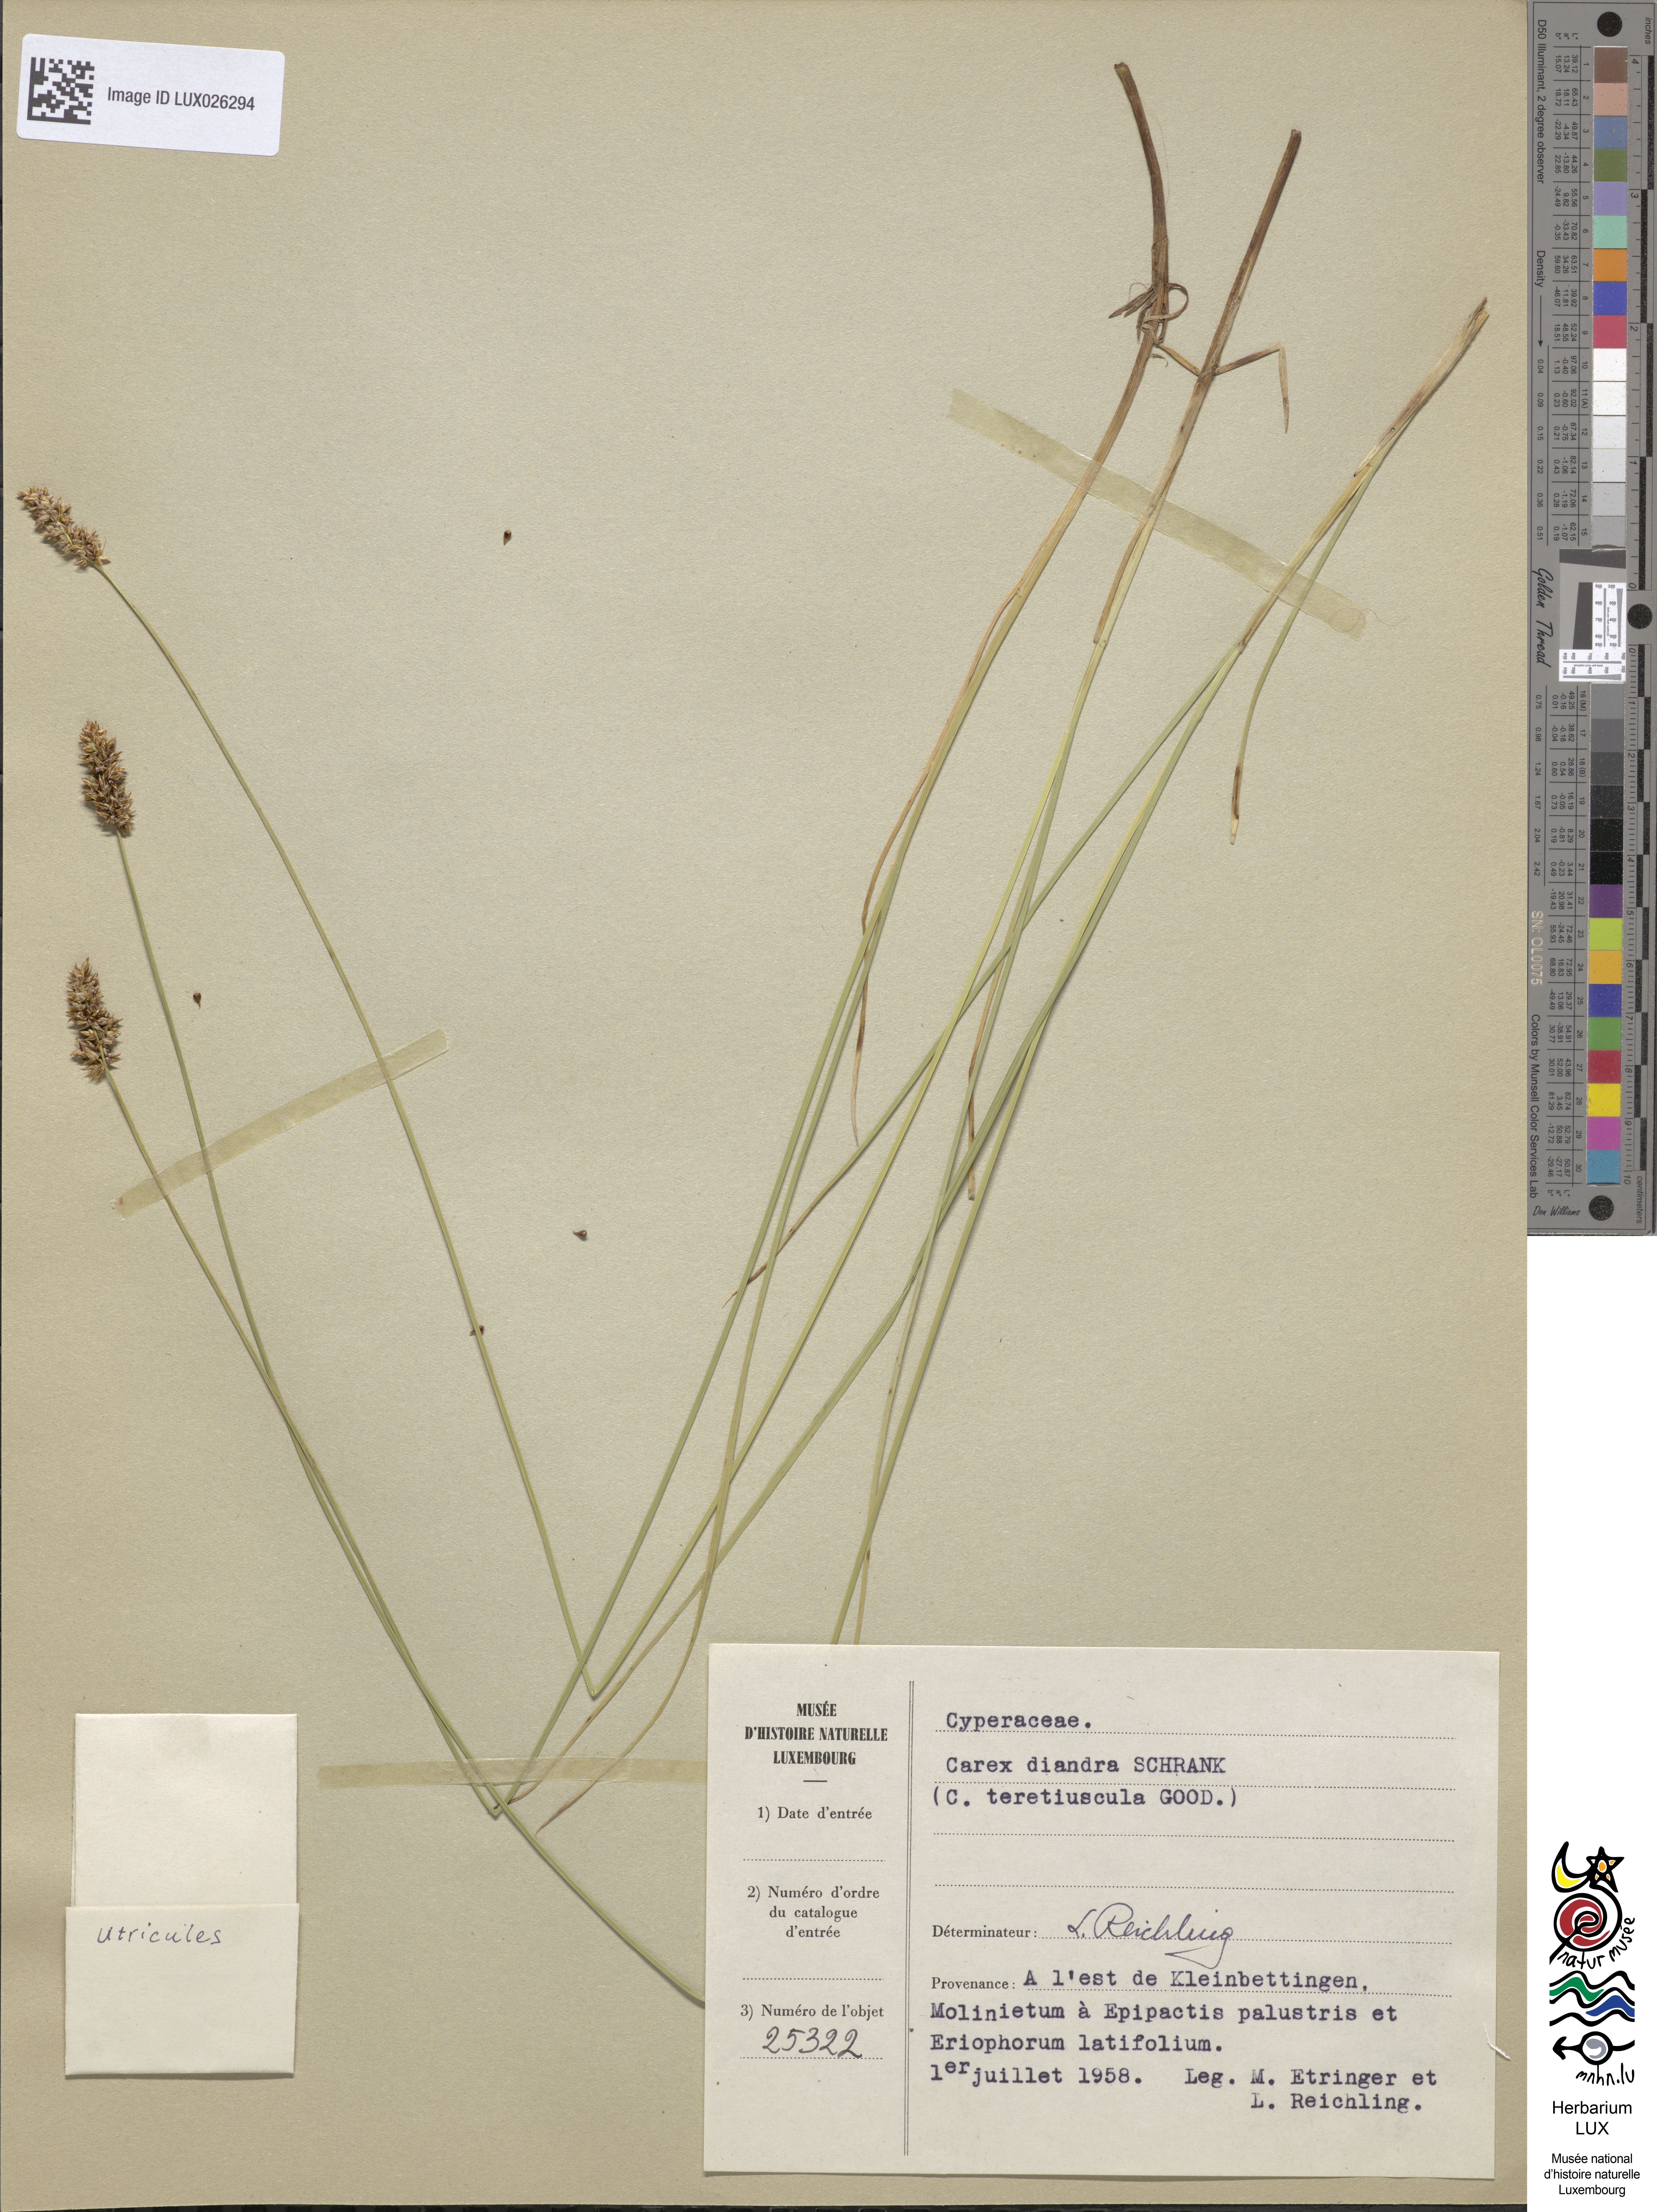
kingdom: Plantae
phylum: Tracheophyta
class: Liliopsida
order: Poales
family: Cyperaceae
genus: Carex
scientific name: Carex diandra
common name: Lesser tussock-sedge
